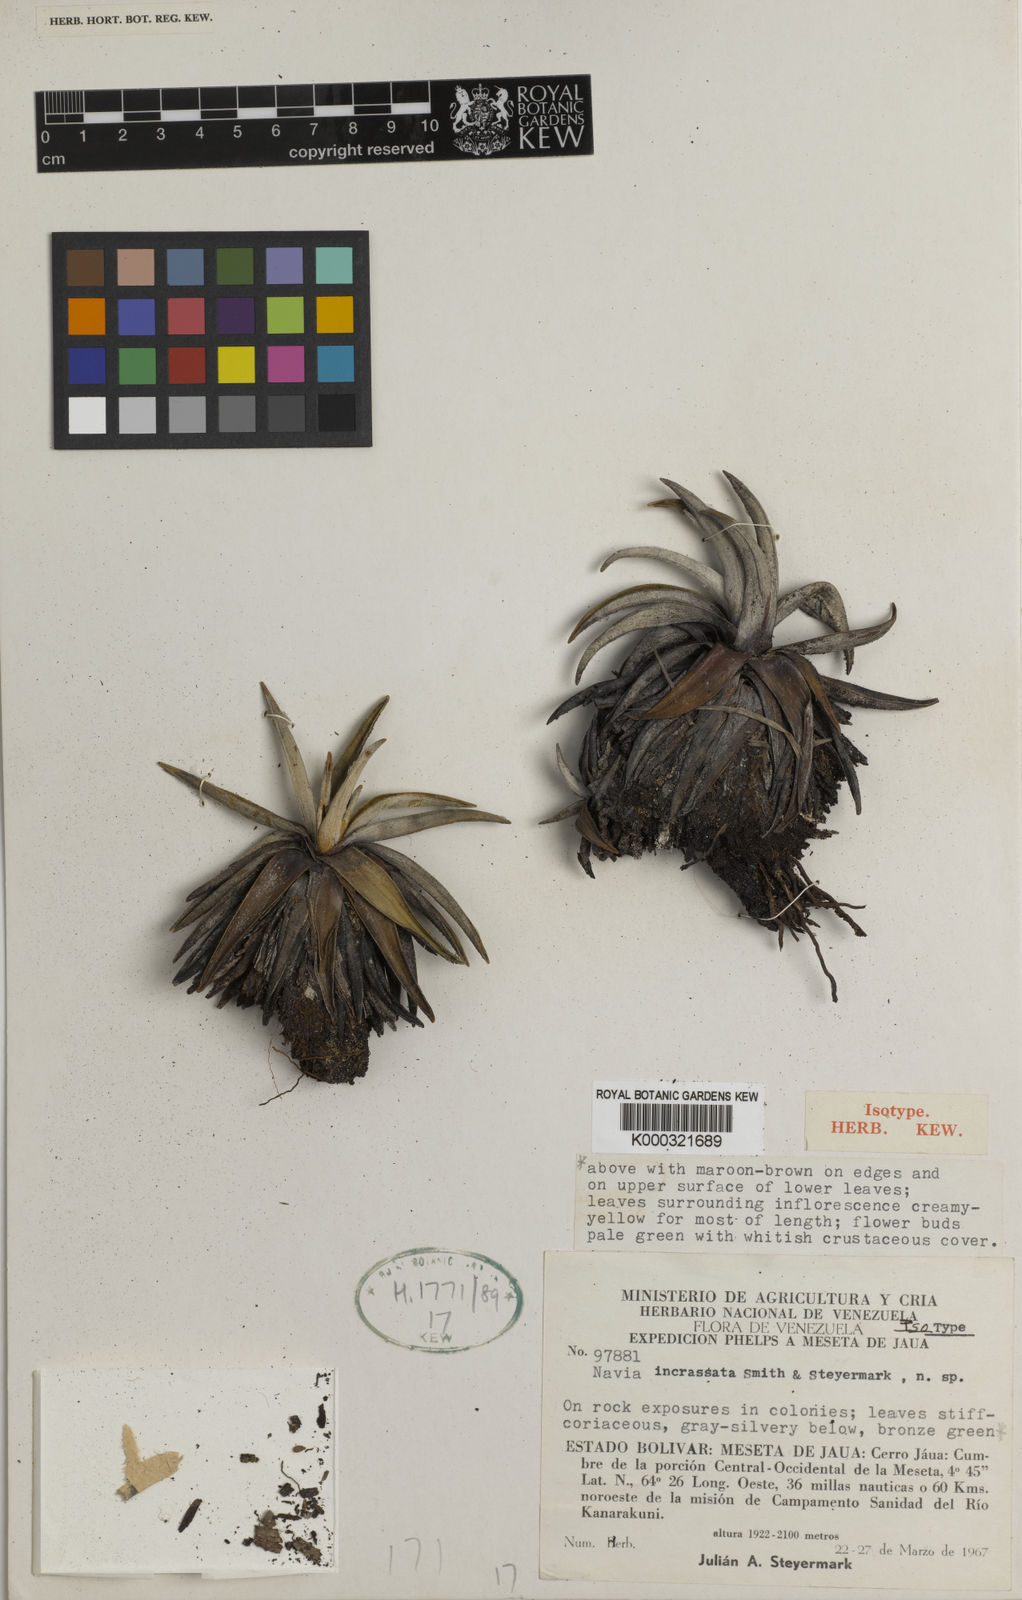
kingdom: Plantae
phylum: Tracheophyta
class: Liliopsida
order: Poales
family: Bromeliaceae
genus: Navia
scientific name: Navia incrassata
